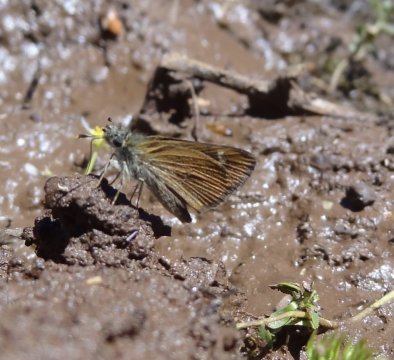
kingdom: Animalia
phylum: Arthropoda
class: Insecta
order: Lepidoptera
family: Hesperiidae
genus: Piruna
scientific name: Piruna pirus
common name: Russet Skipperling
